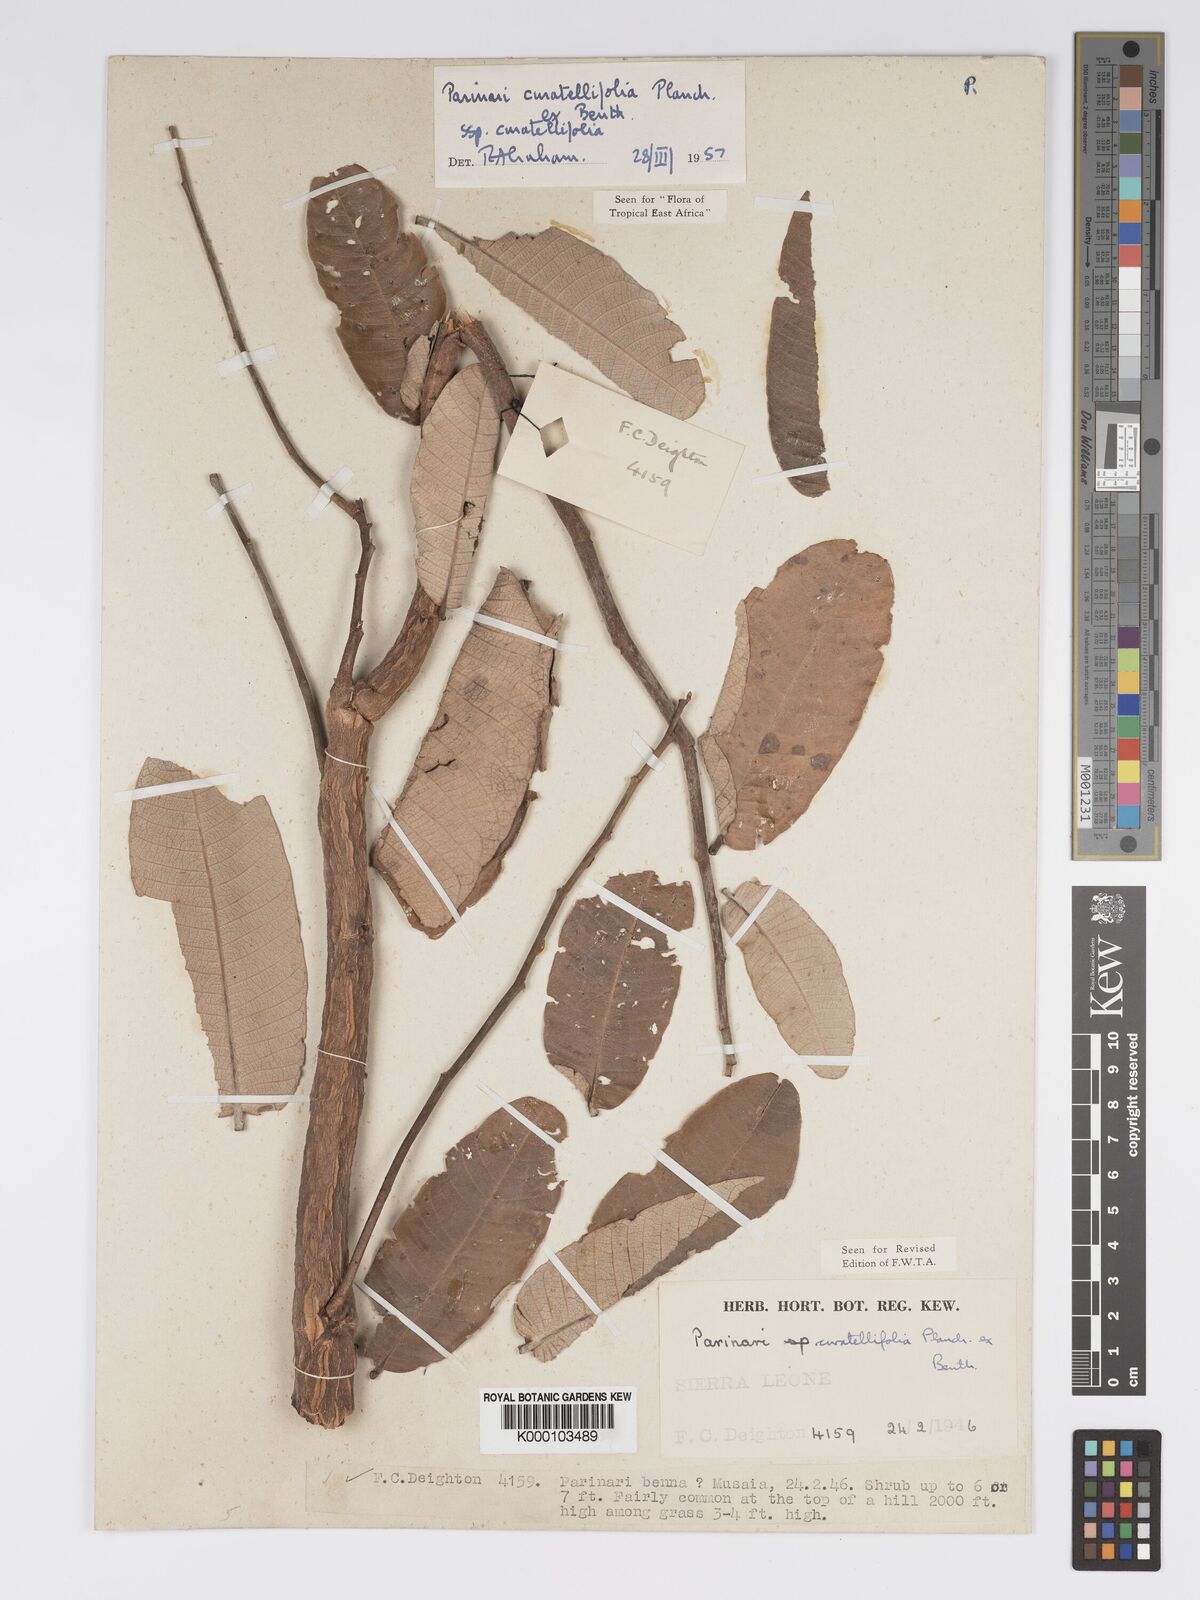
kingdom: Plantae
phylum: Tracheophyta
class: Magnoliopsida
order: Malpighiales
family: Chrysobalanaceae
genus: Parinari
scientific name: Parinari curatellifolia
